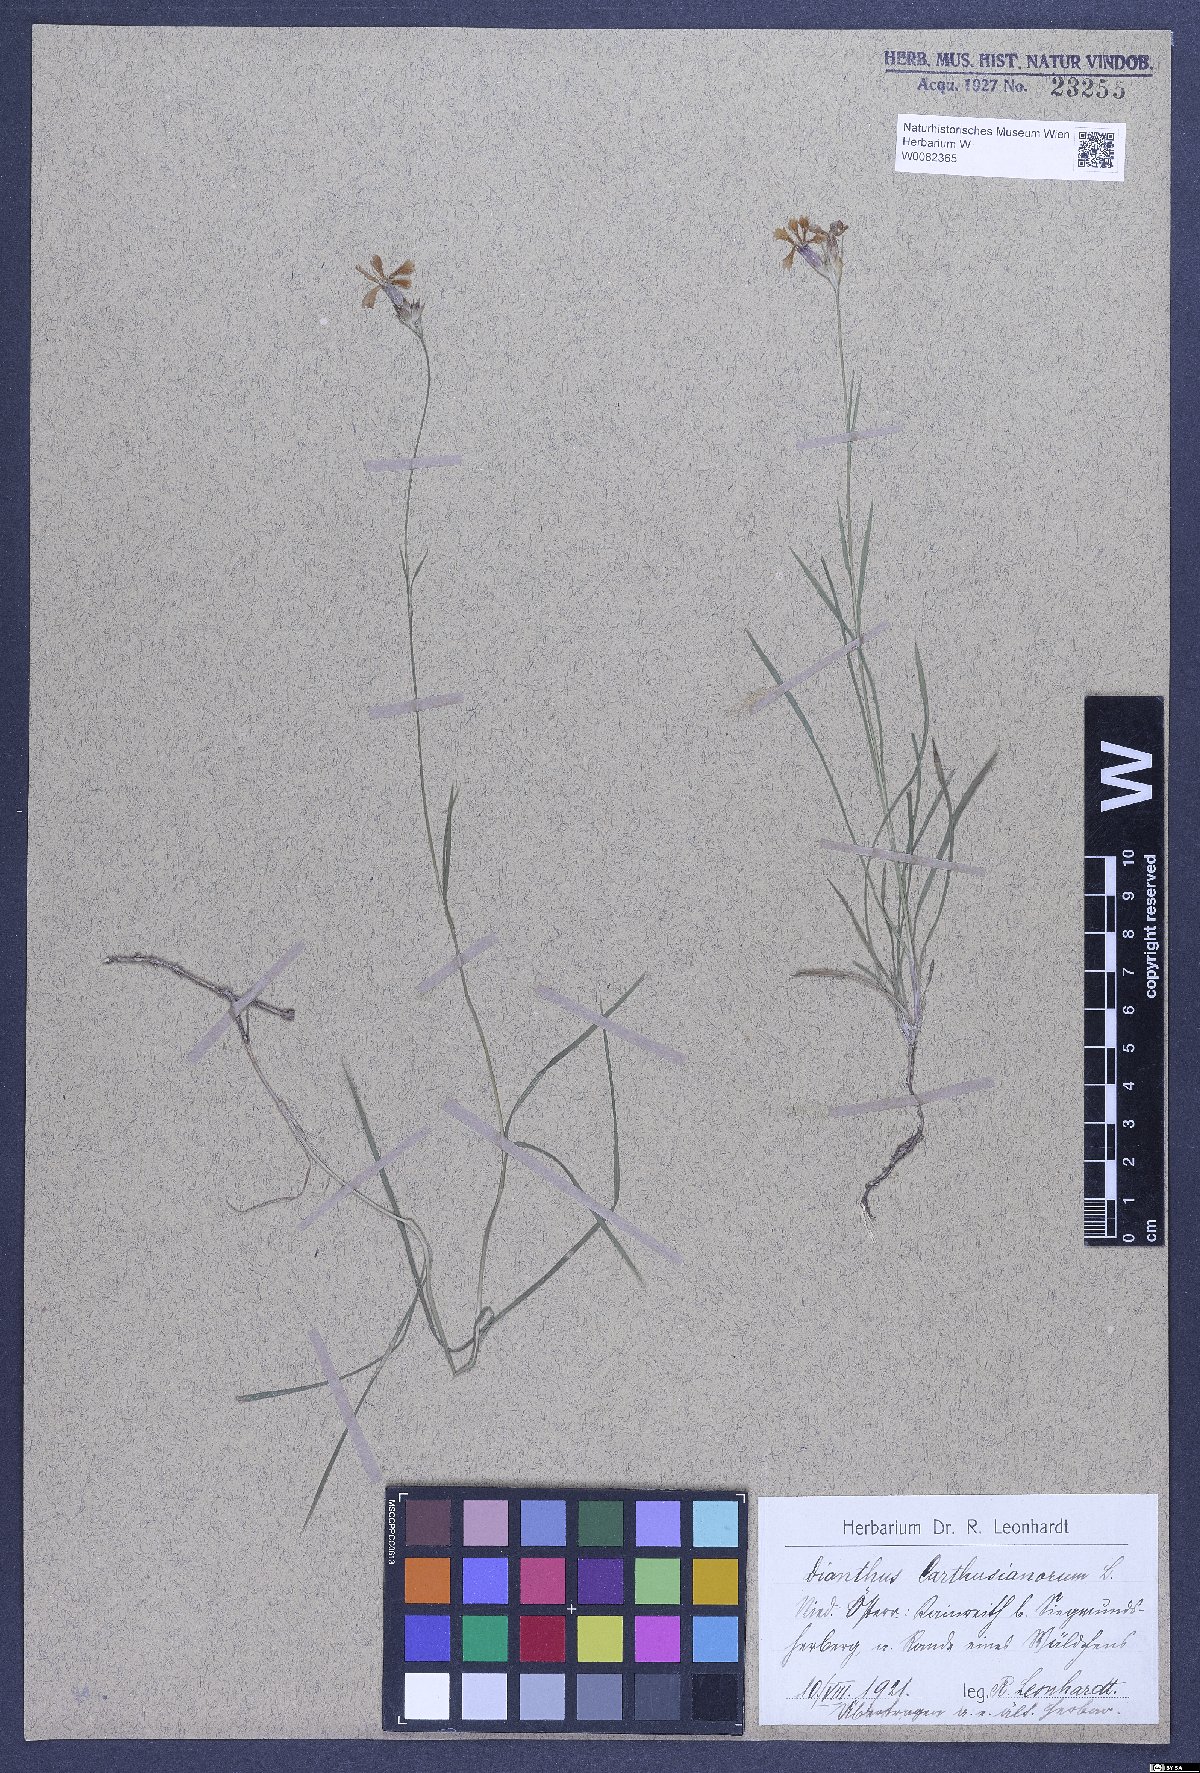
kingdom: Plantae
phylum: Tracheophyta
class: Magnoliopsida
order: Caryophyllales
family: Caryophyllaceae
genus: Dianthus
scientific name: Dianthus carthusianorum
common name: Carthusian pink
